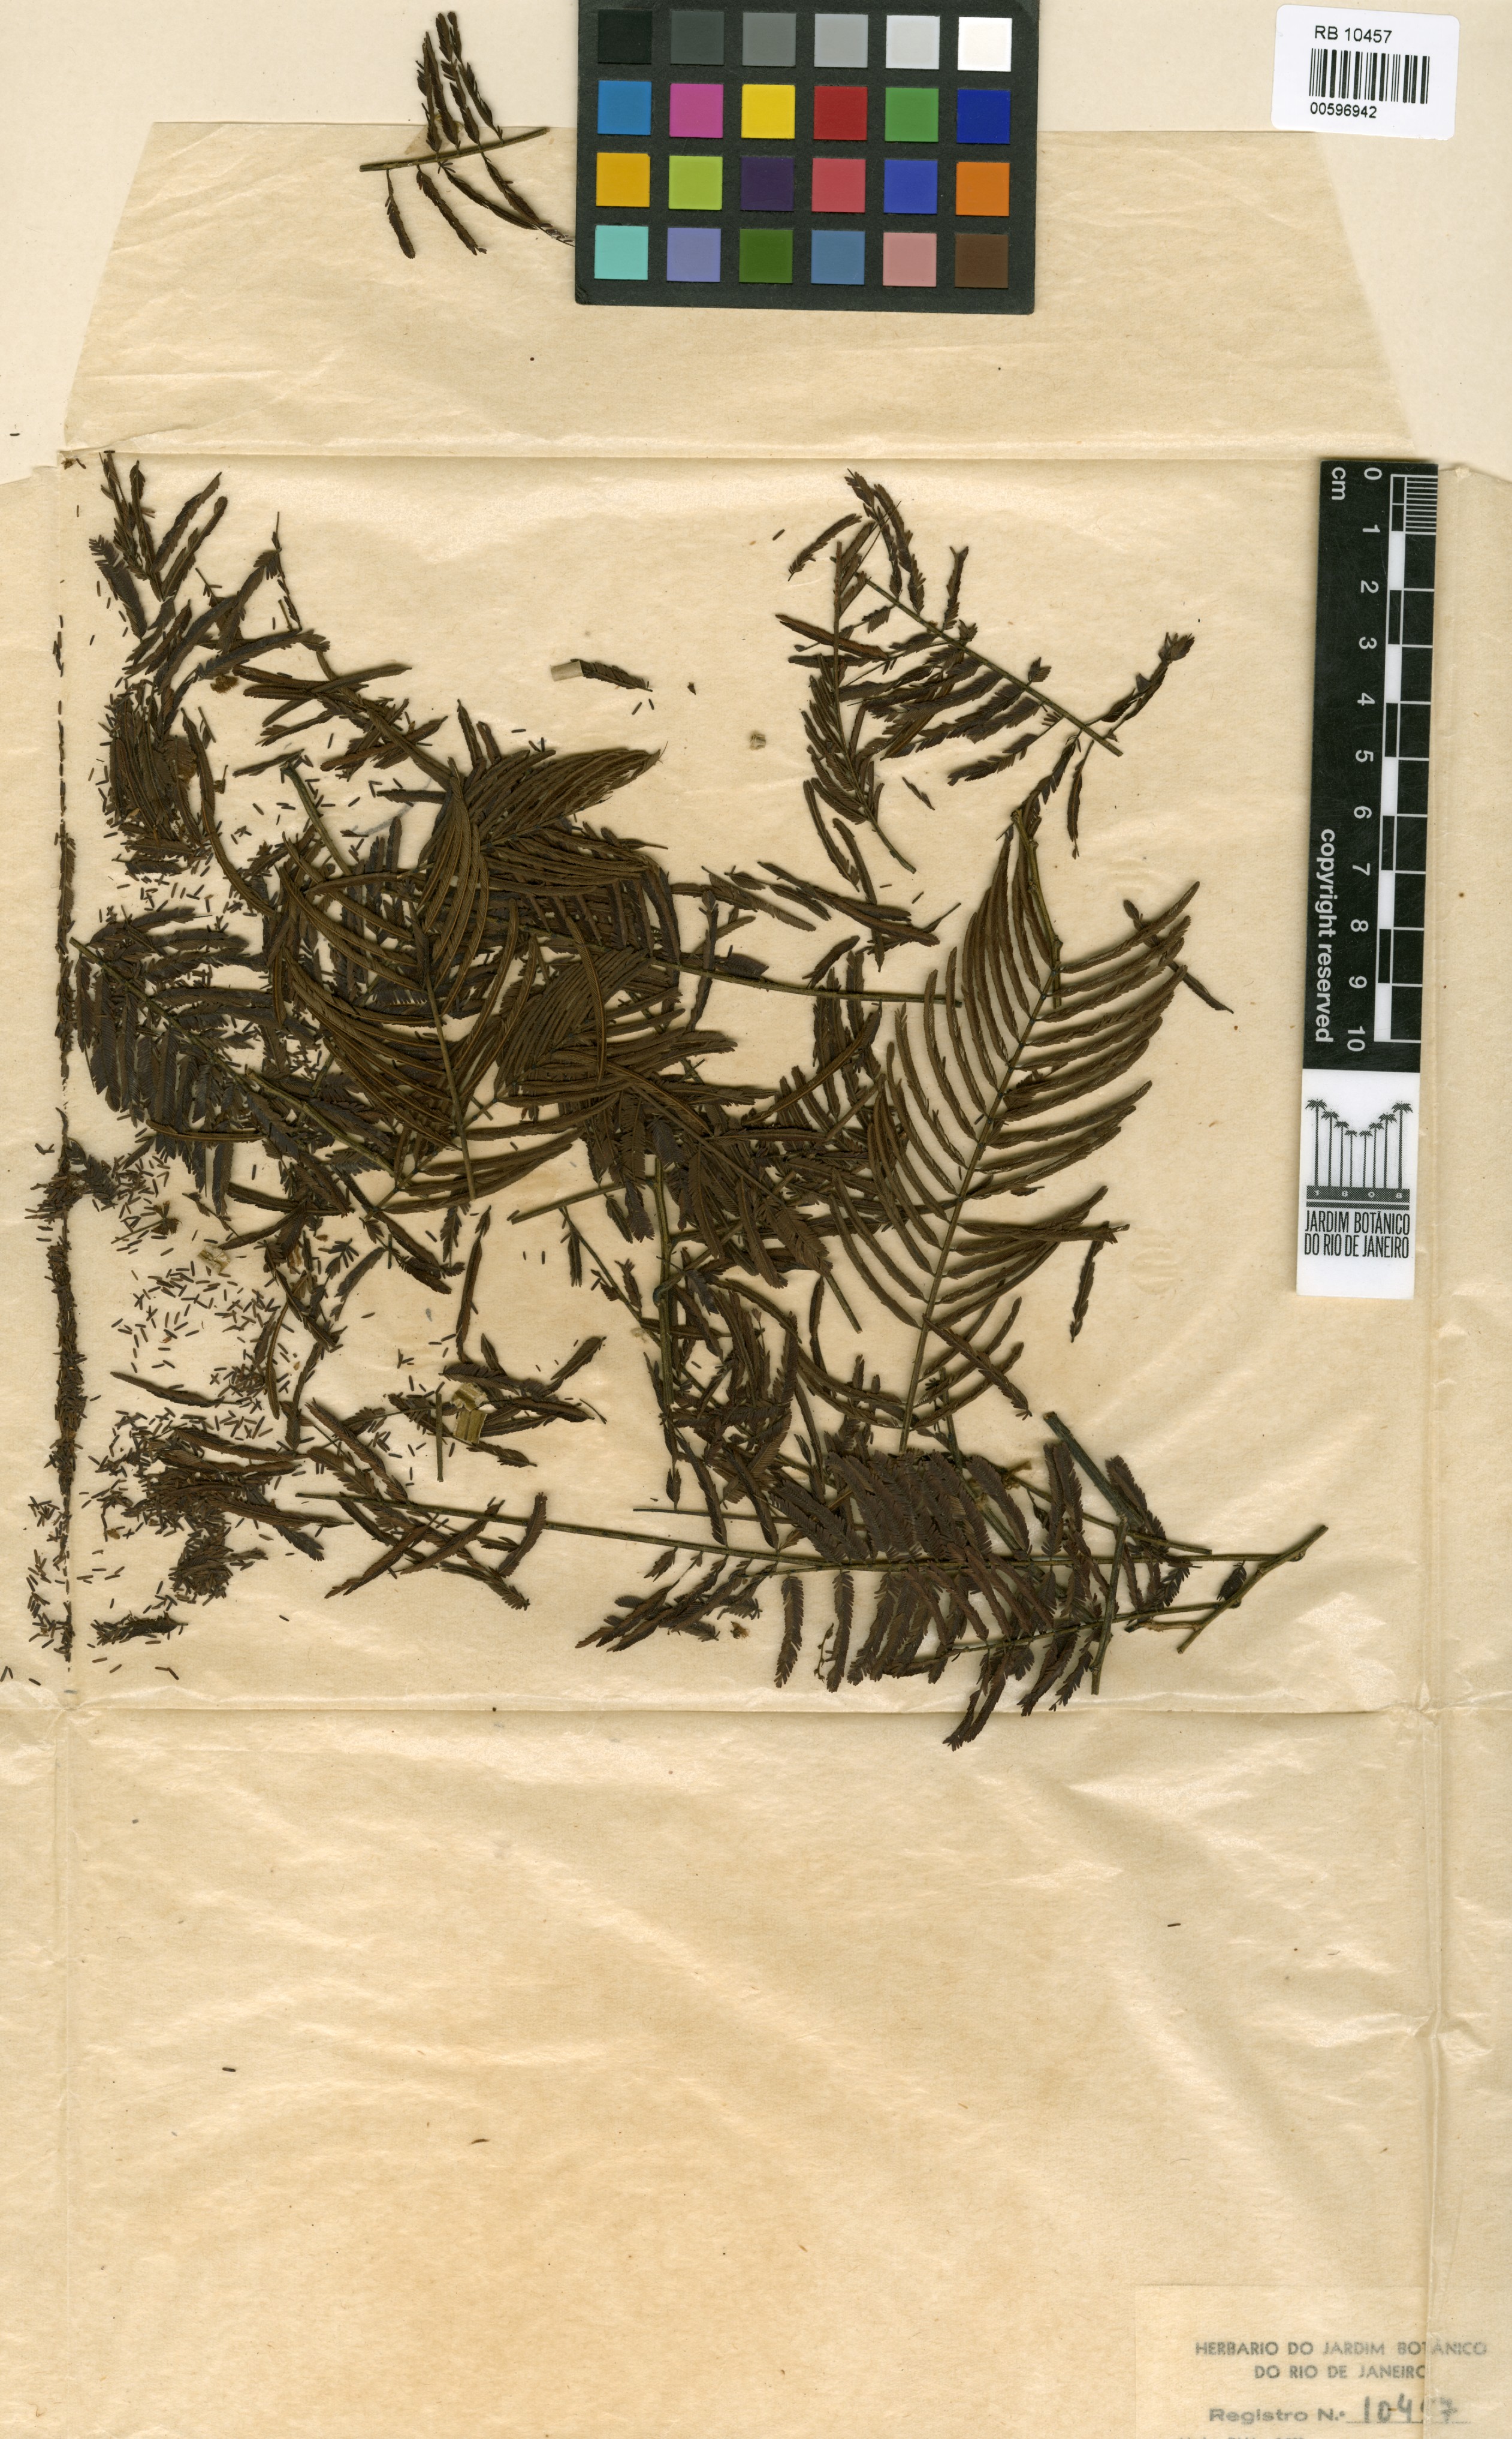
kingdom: Plantae
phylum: Tracheophyta
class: Magnoliopsida
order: Fabales
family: Fabaceae
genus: Senegalia
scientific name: Senegalia paniculata
